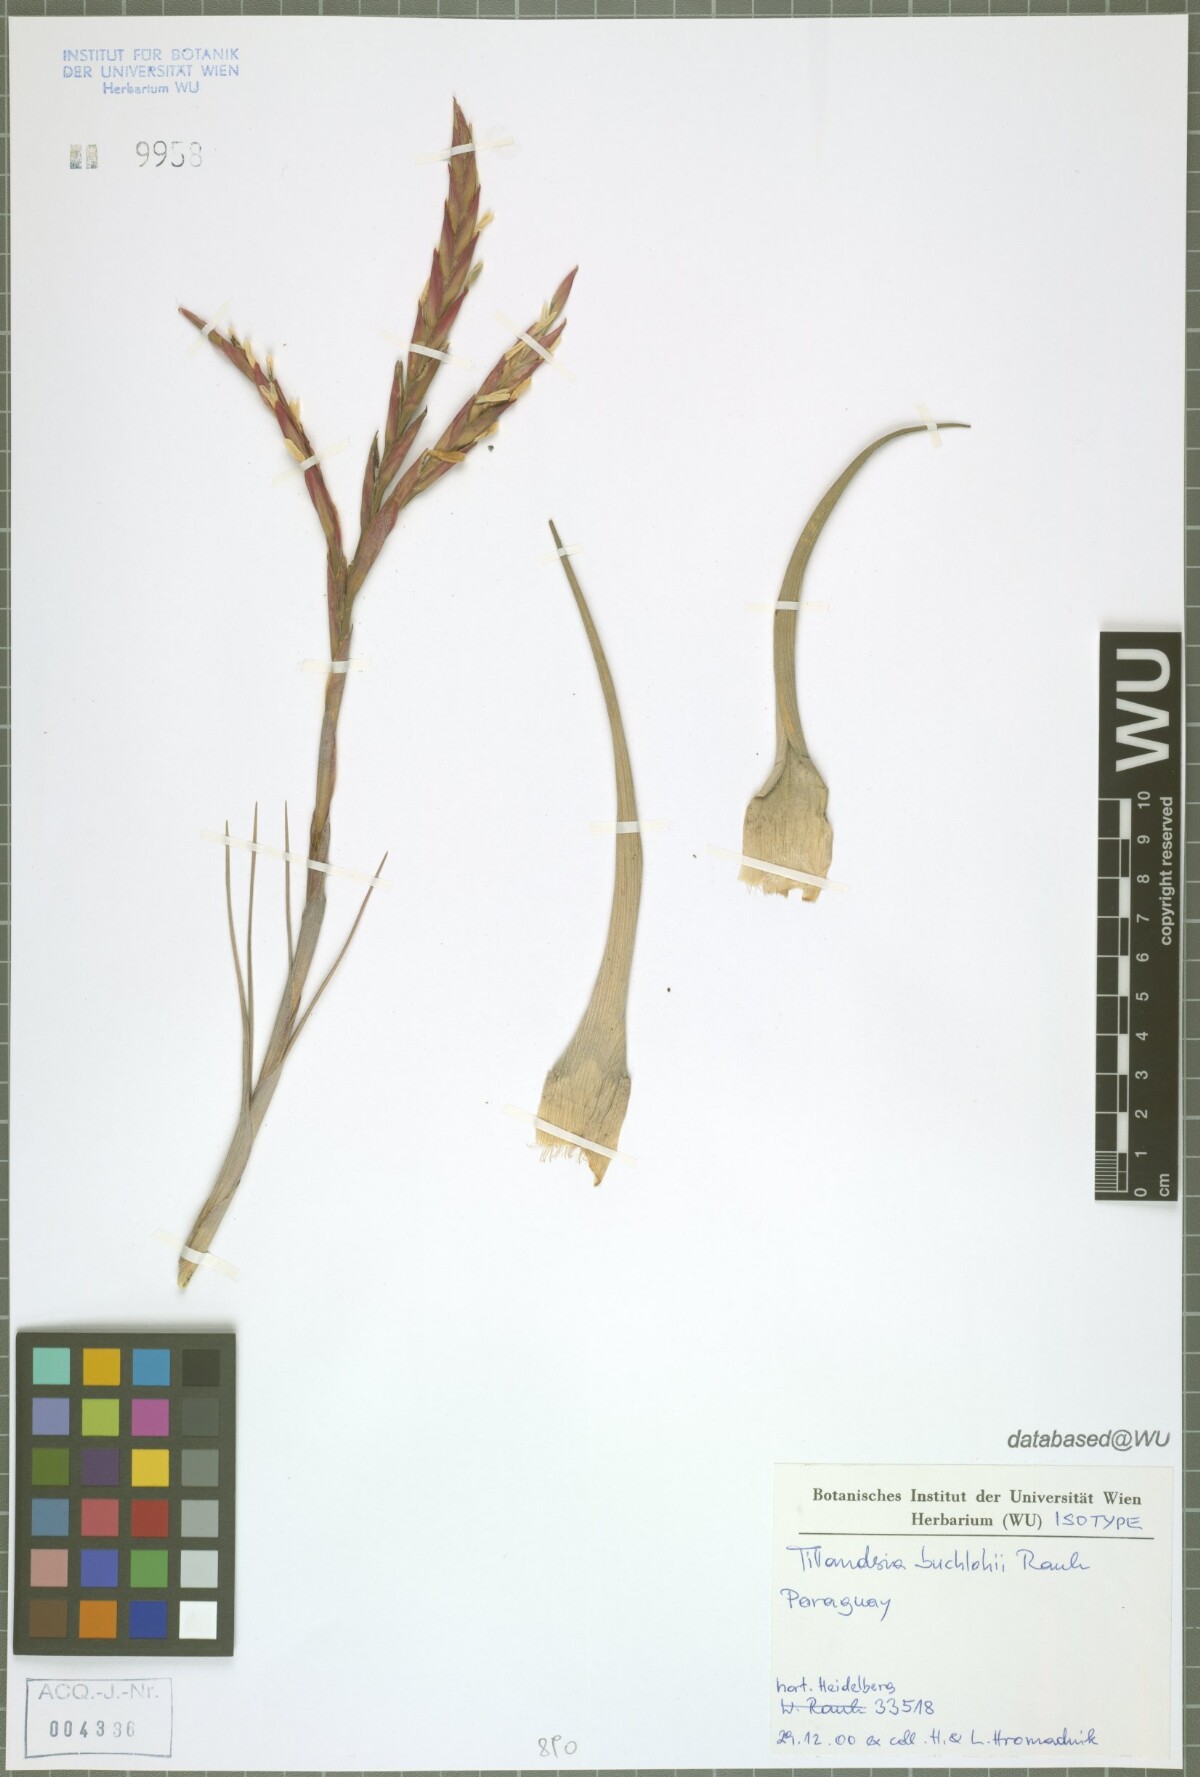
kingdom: Plantae
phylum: Tracheophyta
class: Liliopsida
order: Poales
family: Bromeliaceae
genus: Tillandsia
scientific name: Tillandsia buchlohii
